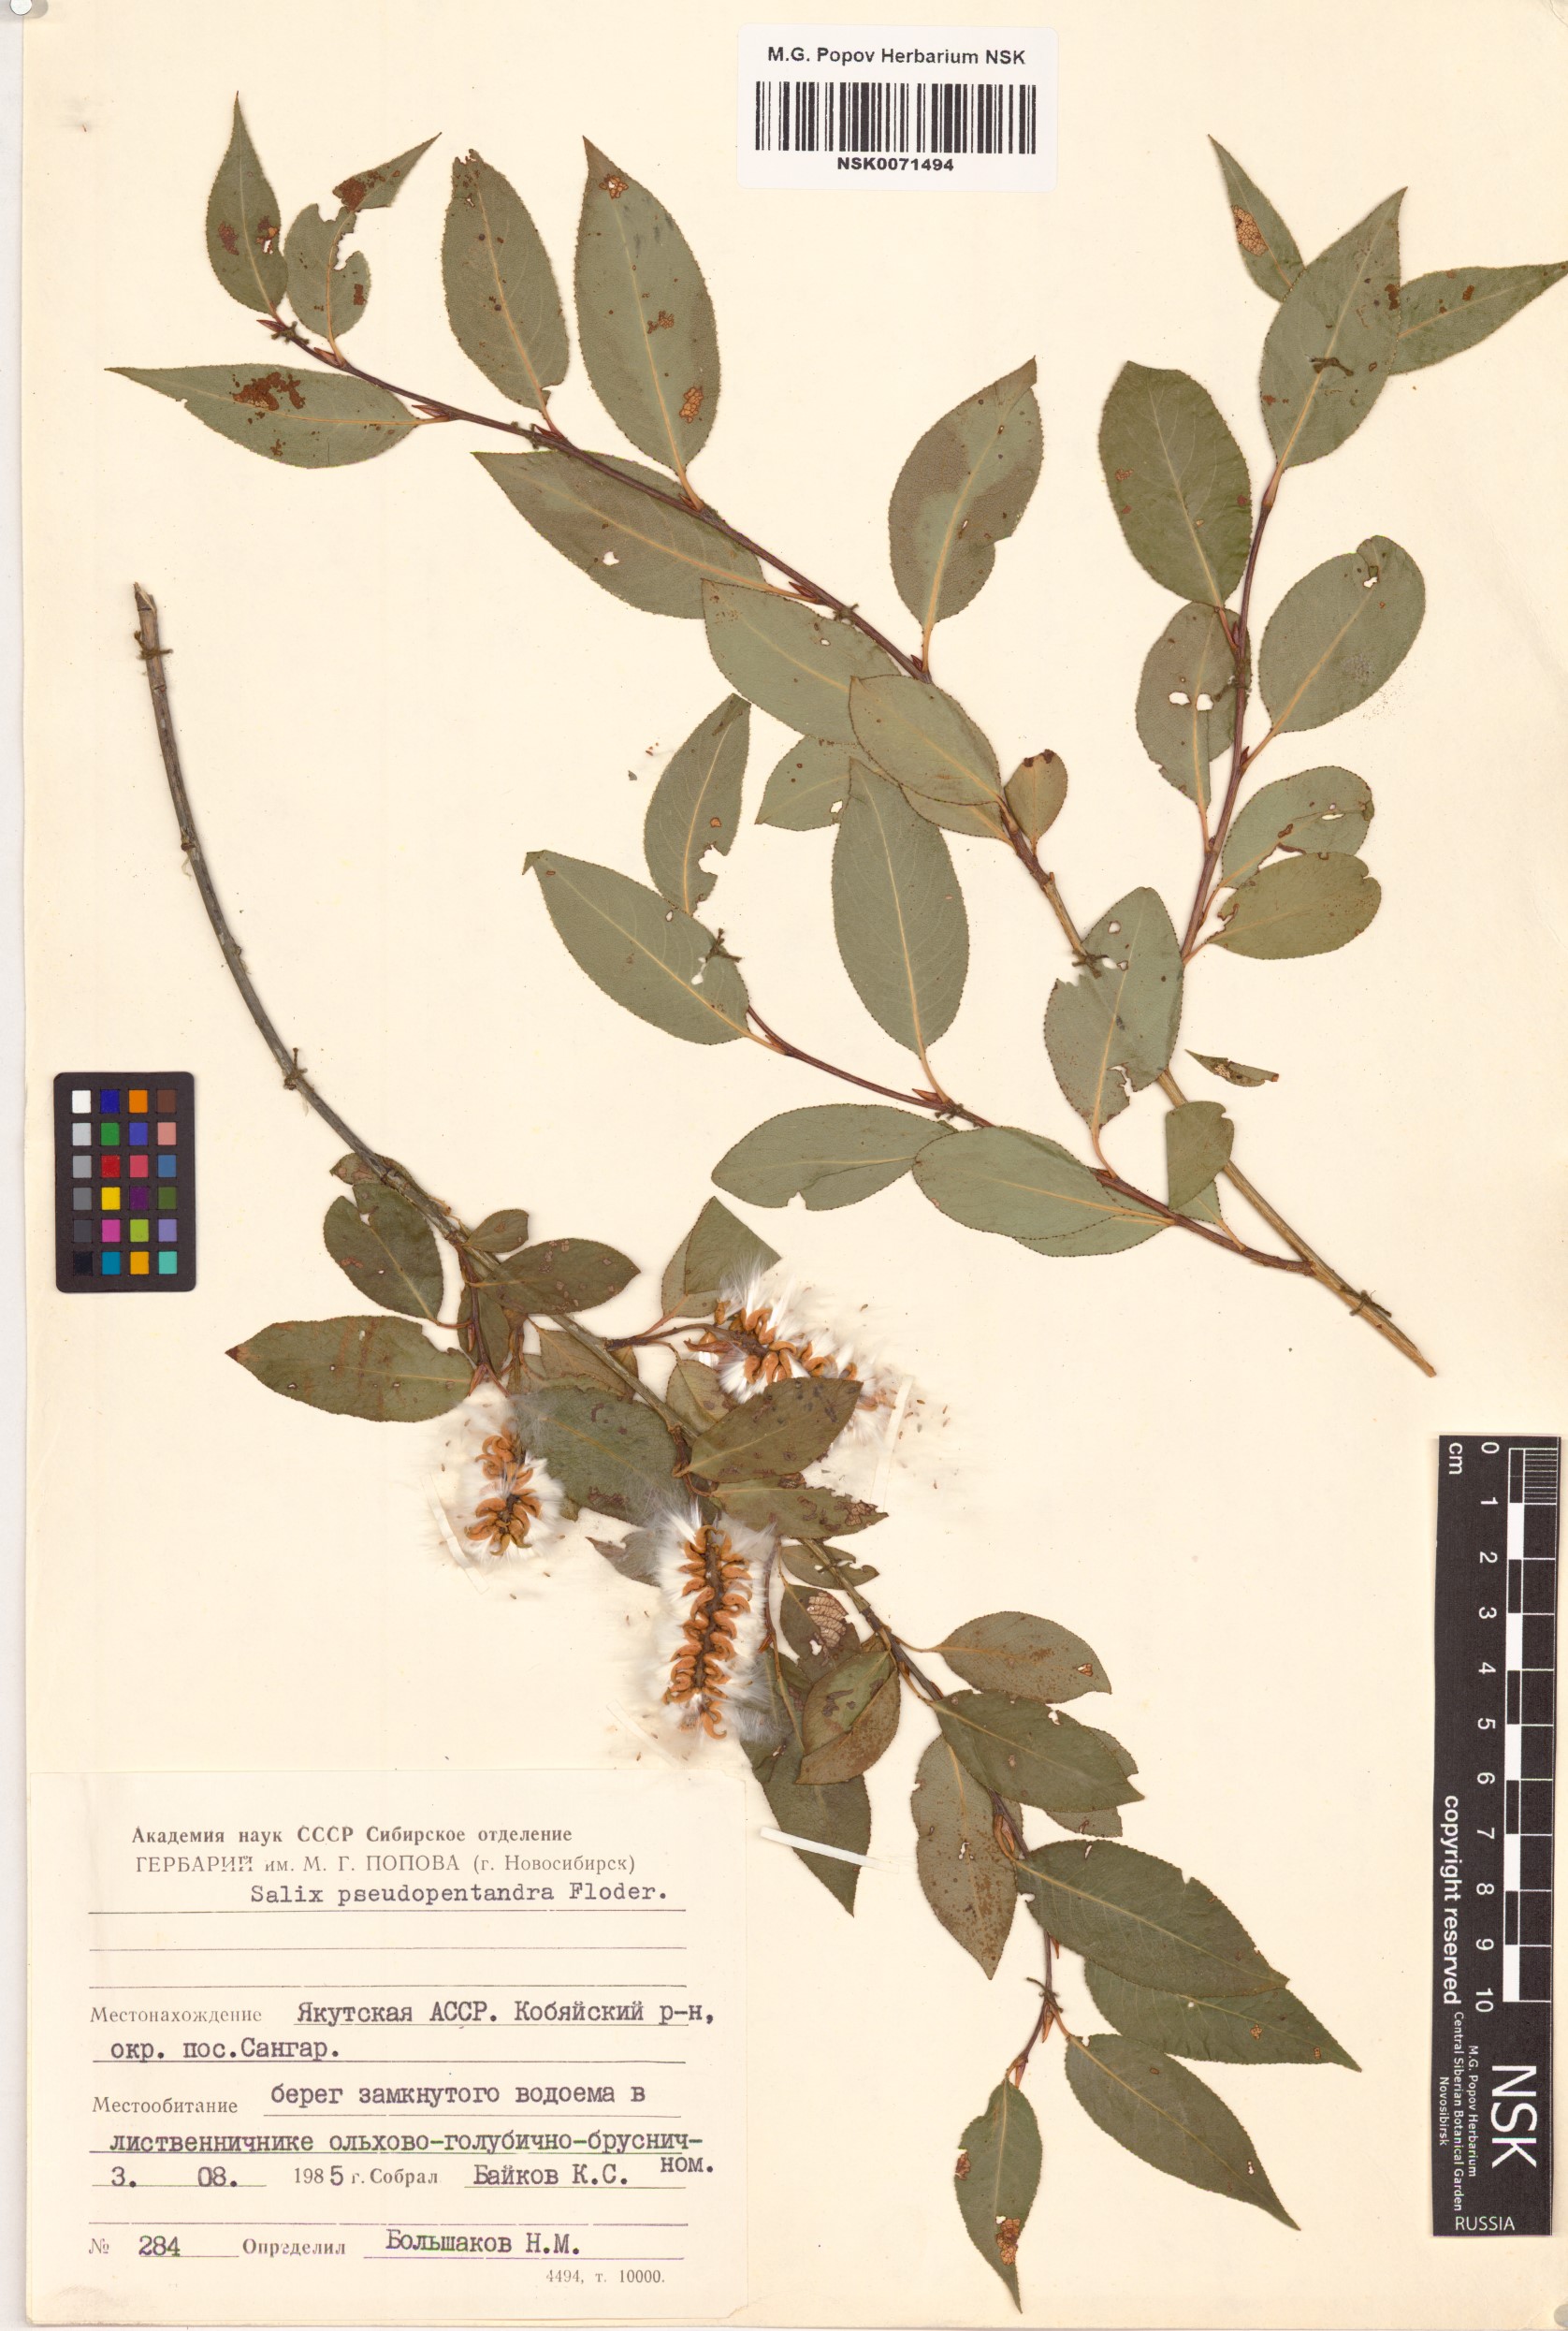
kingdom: Plantae
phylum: Tracheophyta
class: Magnoliopsida
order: Malpighiales
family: Salicaceae
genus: Salix
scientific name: Salix pseudopentandra
